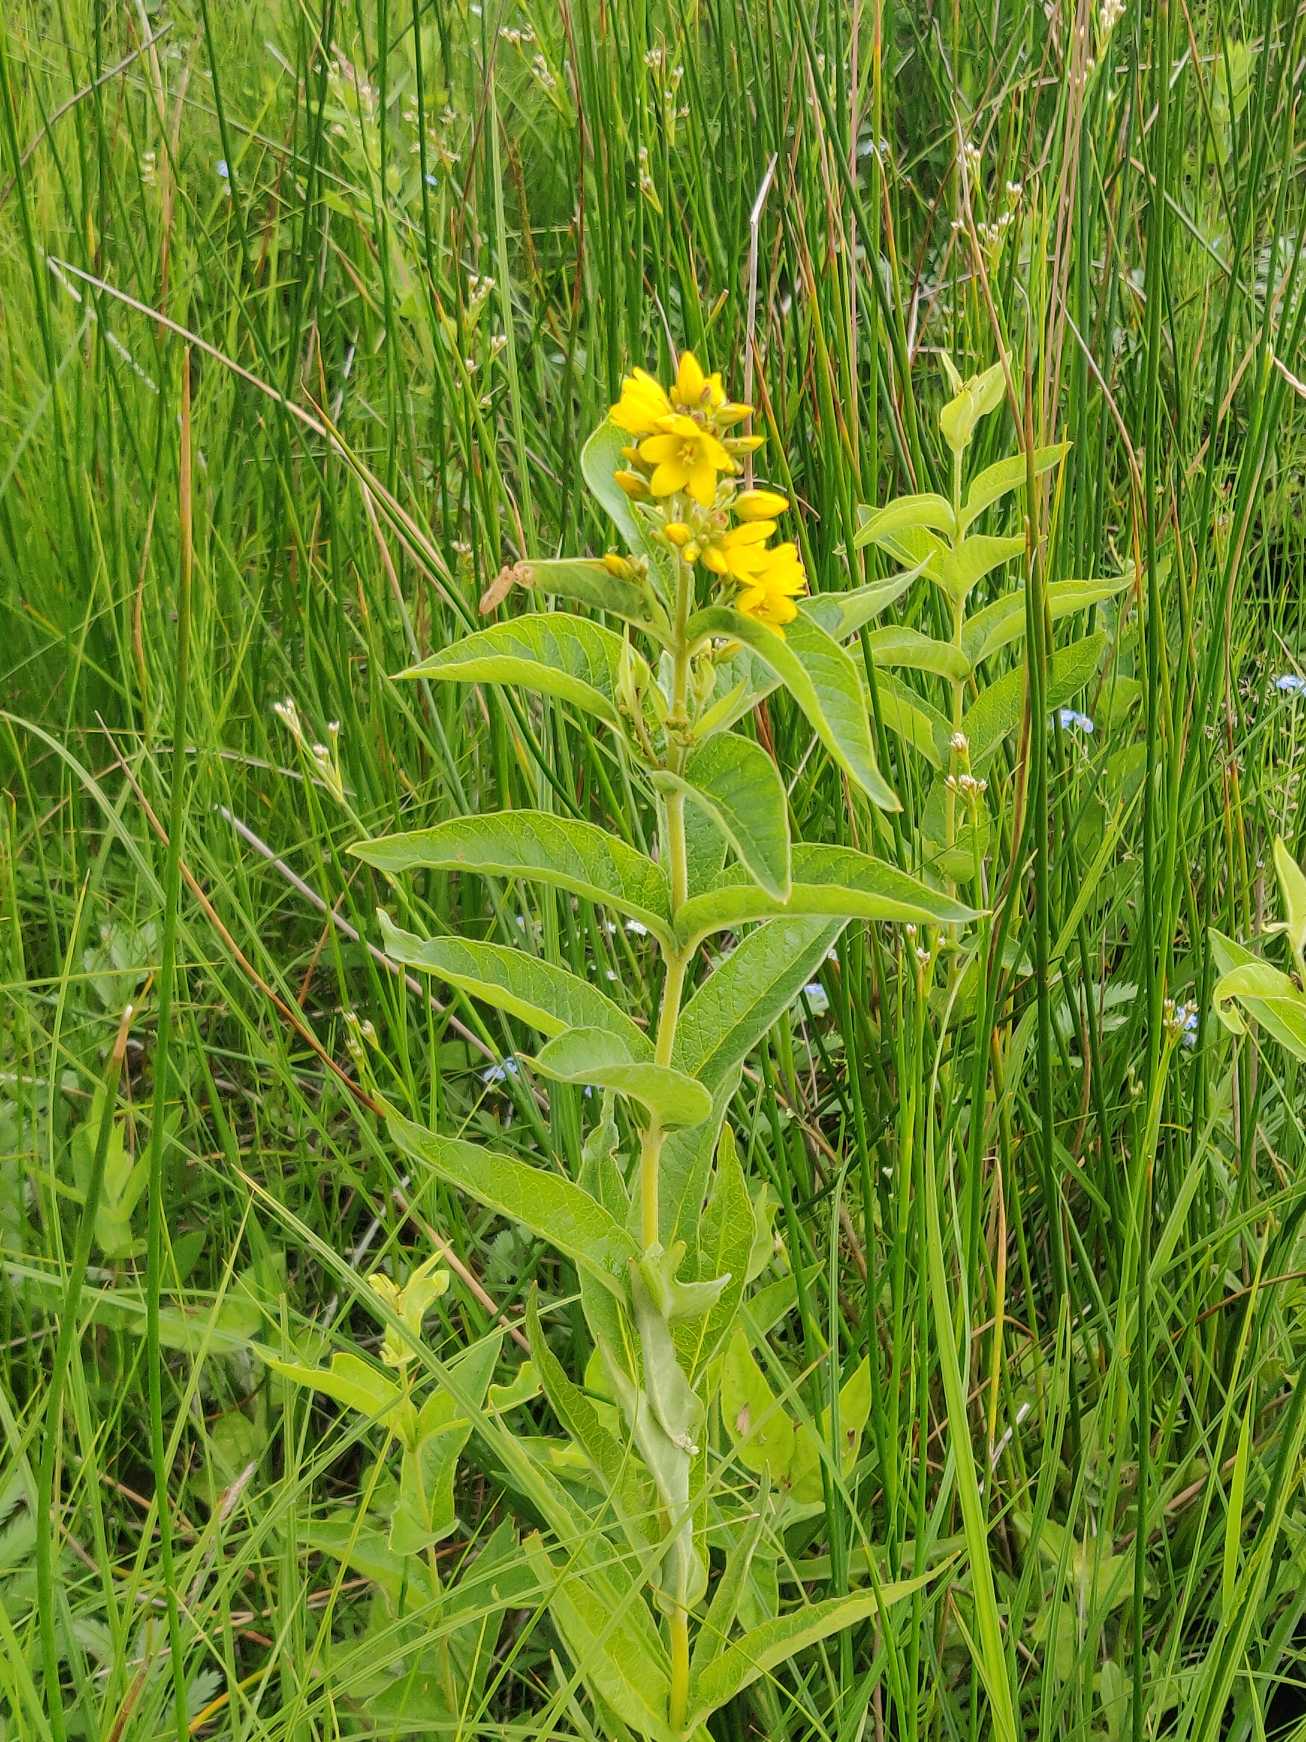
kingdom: Plantae
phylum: Tracheophyta
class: Magnoliopsida
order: Ericales
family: Primulaceae
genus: Lysimachia
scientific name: Lysimachia vulgaris
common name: Almindelig fredløs
